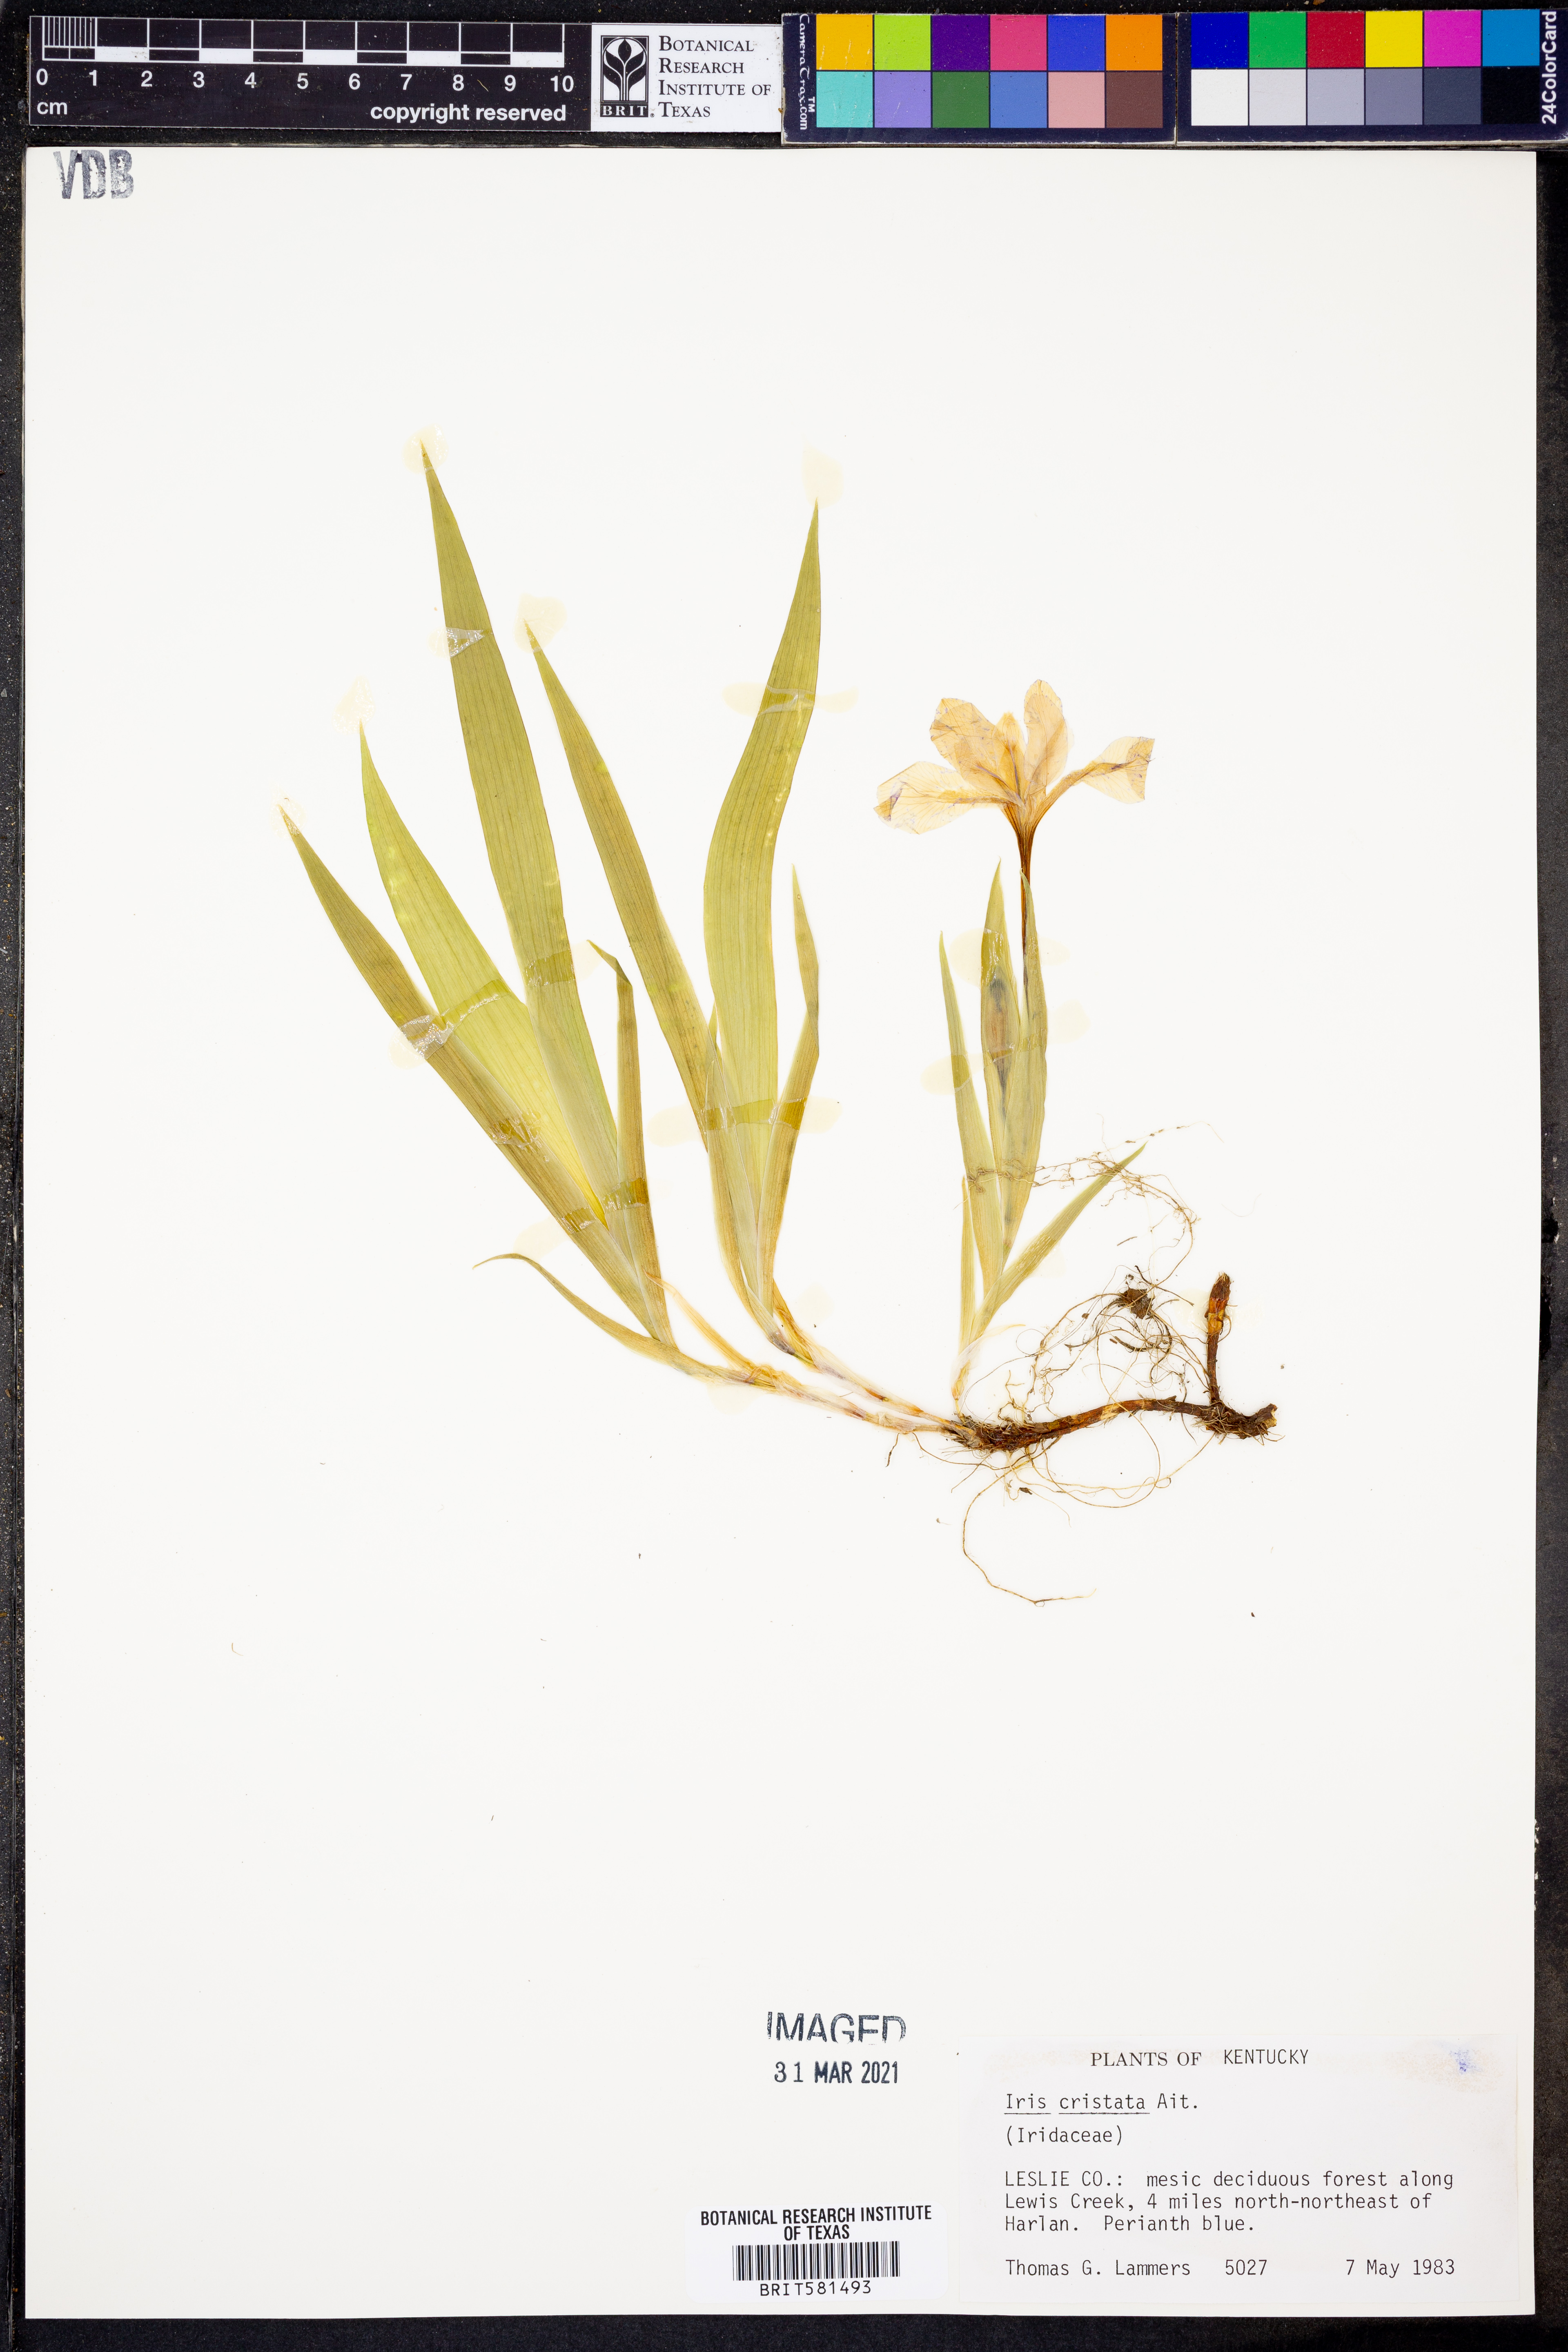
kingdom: Plantae
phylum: Tracheophyta
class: Liliopsida
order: Asparagales
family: Iridaceae
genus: Iris
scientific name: Iris cristata
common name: Crested iris
